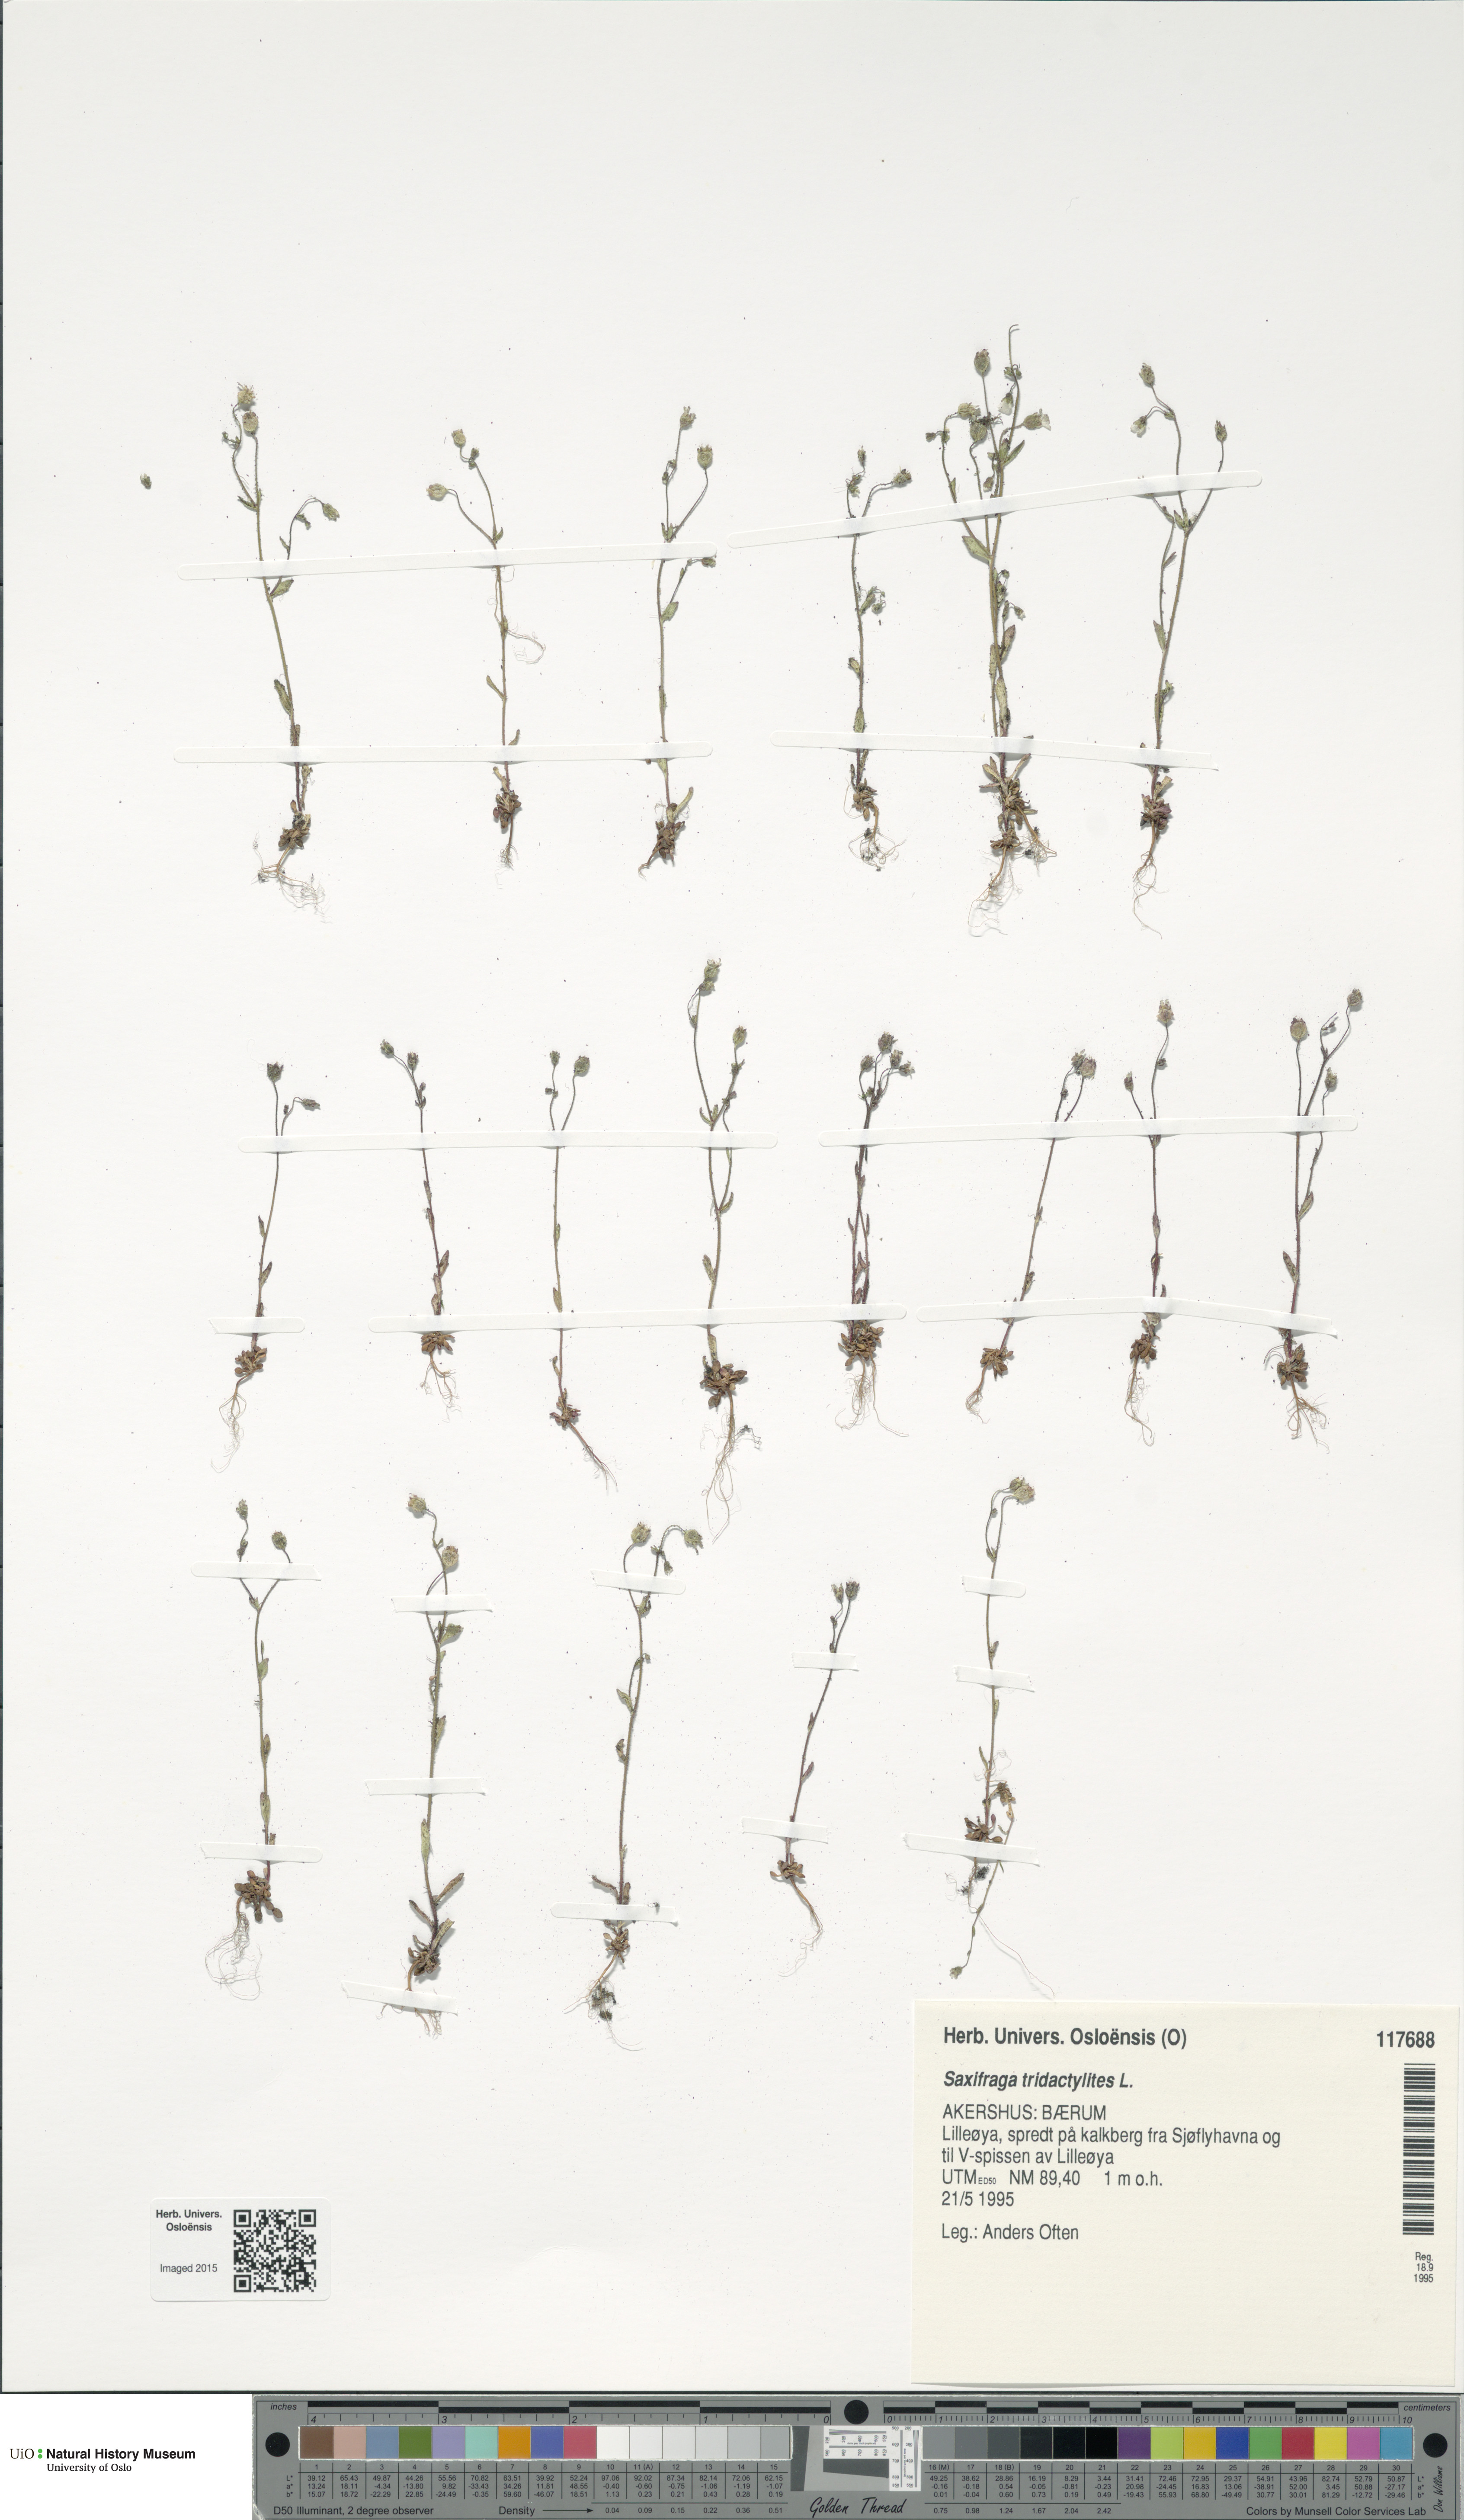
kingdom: Plantae
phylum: Tracheophyta
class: Magnoliopsida
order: Saxifragales
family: Saxifragaceae
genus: Saxifraga
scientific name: Saxifraga tridactylites
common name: Rue-leaved saxifrage
